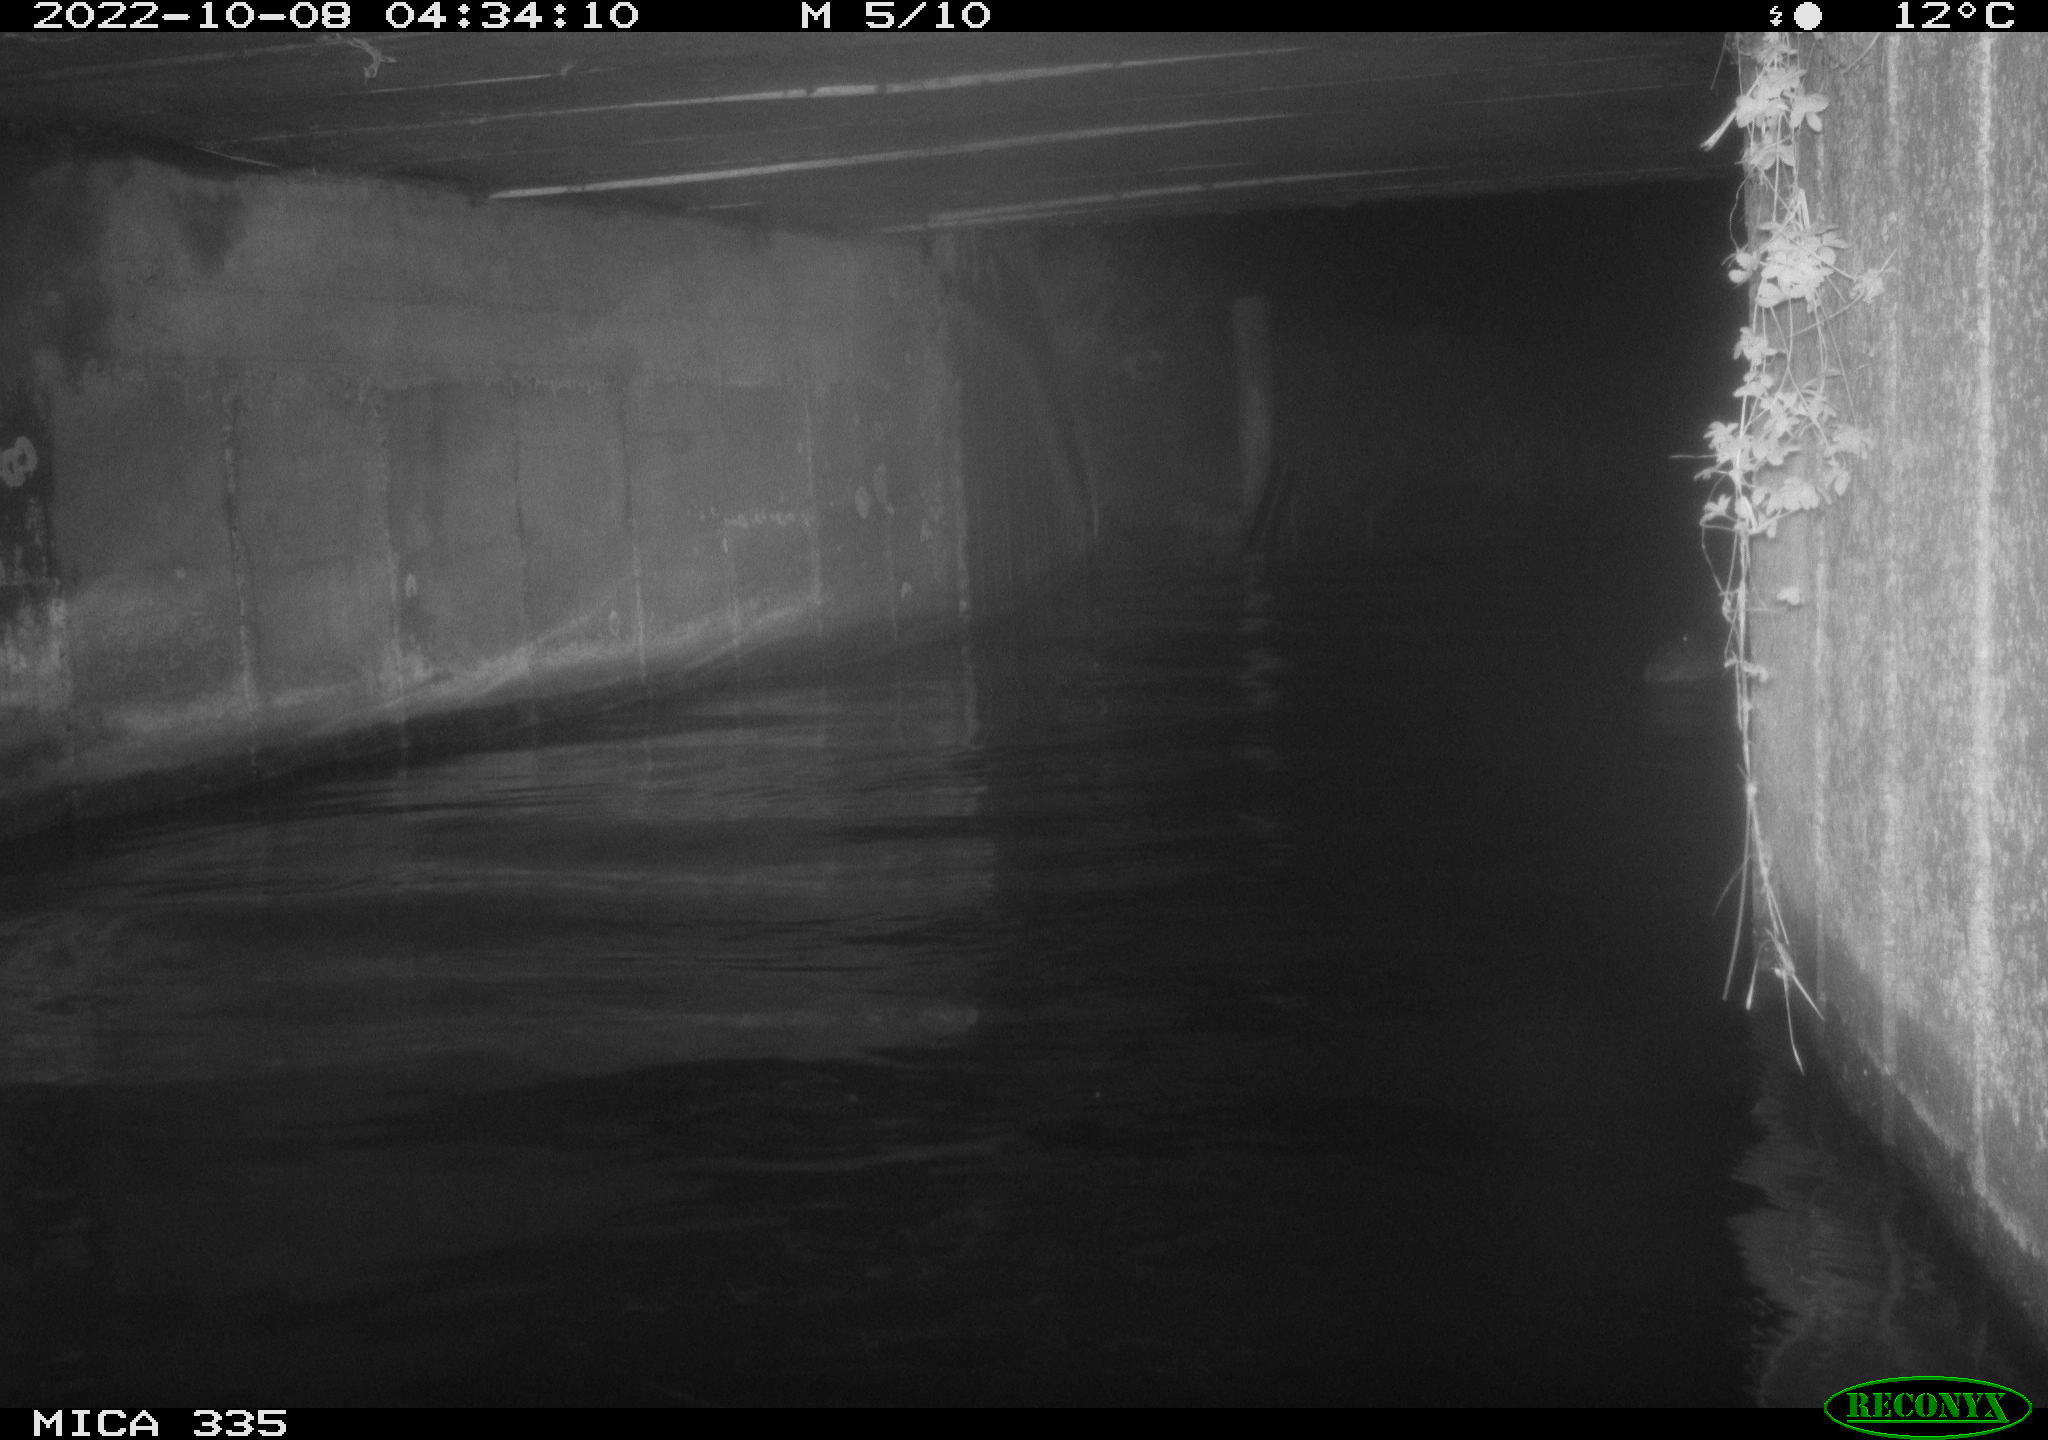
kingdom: Animalia
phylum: Chordata
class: Aves
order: Anseriformes
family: Anatidae
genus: Anas
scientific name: Anas platyrhynchos
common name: Mallard
